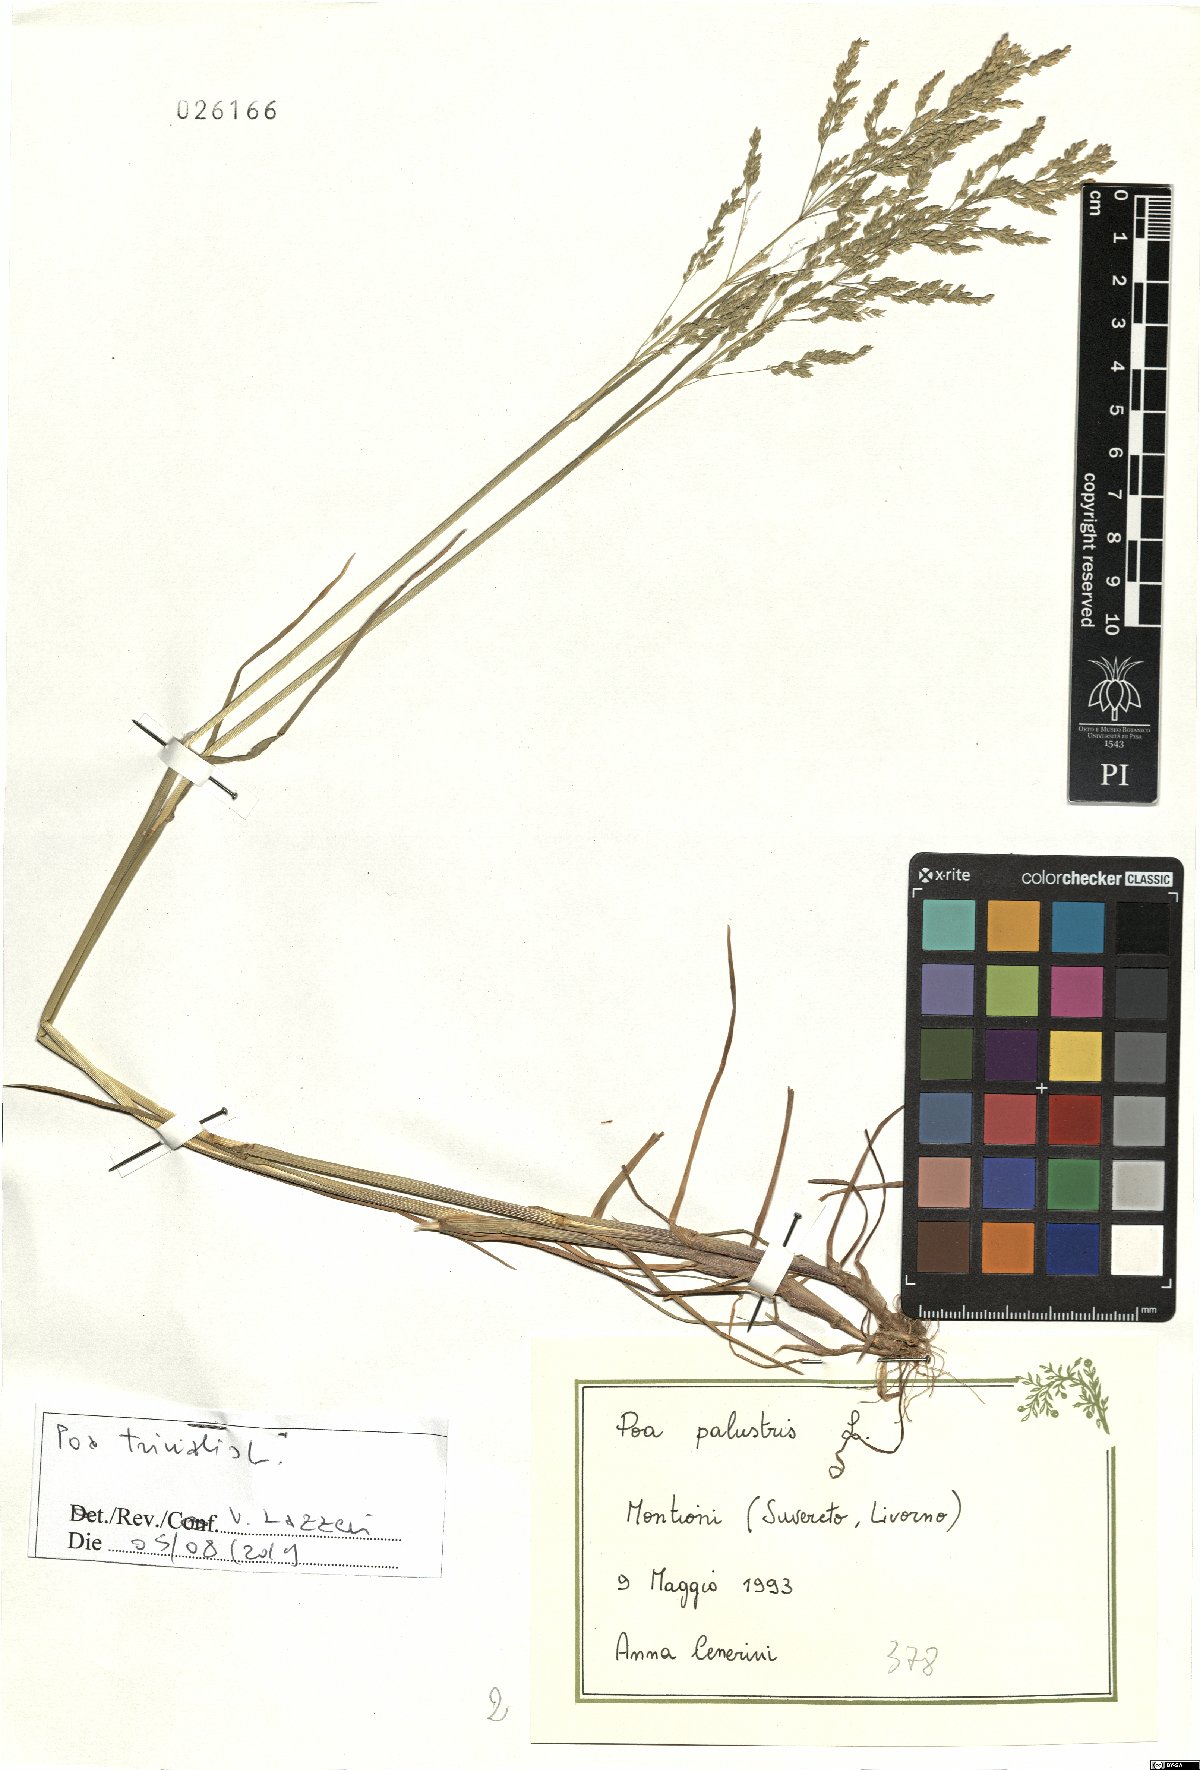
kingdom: Plantae
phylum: Tracheophyta
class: Liliopsida
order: Poales
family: Poaceae
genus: Poa
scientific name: Poa trivialis
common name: Rough bluegrass
